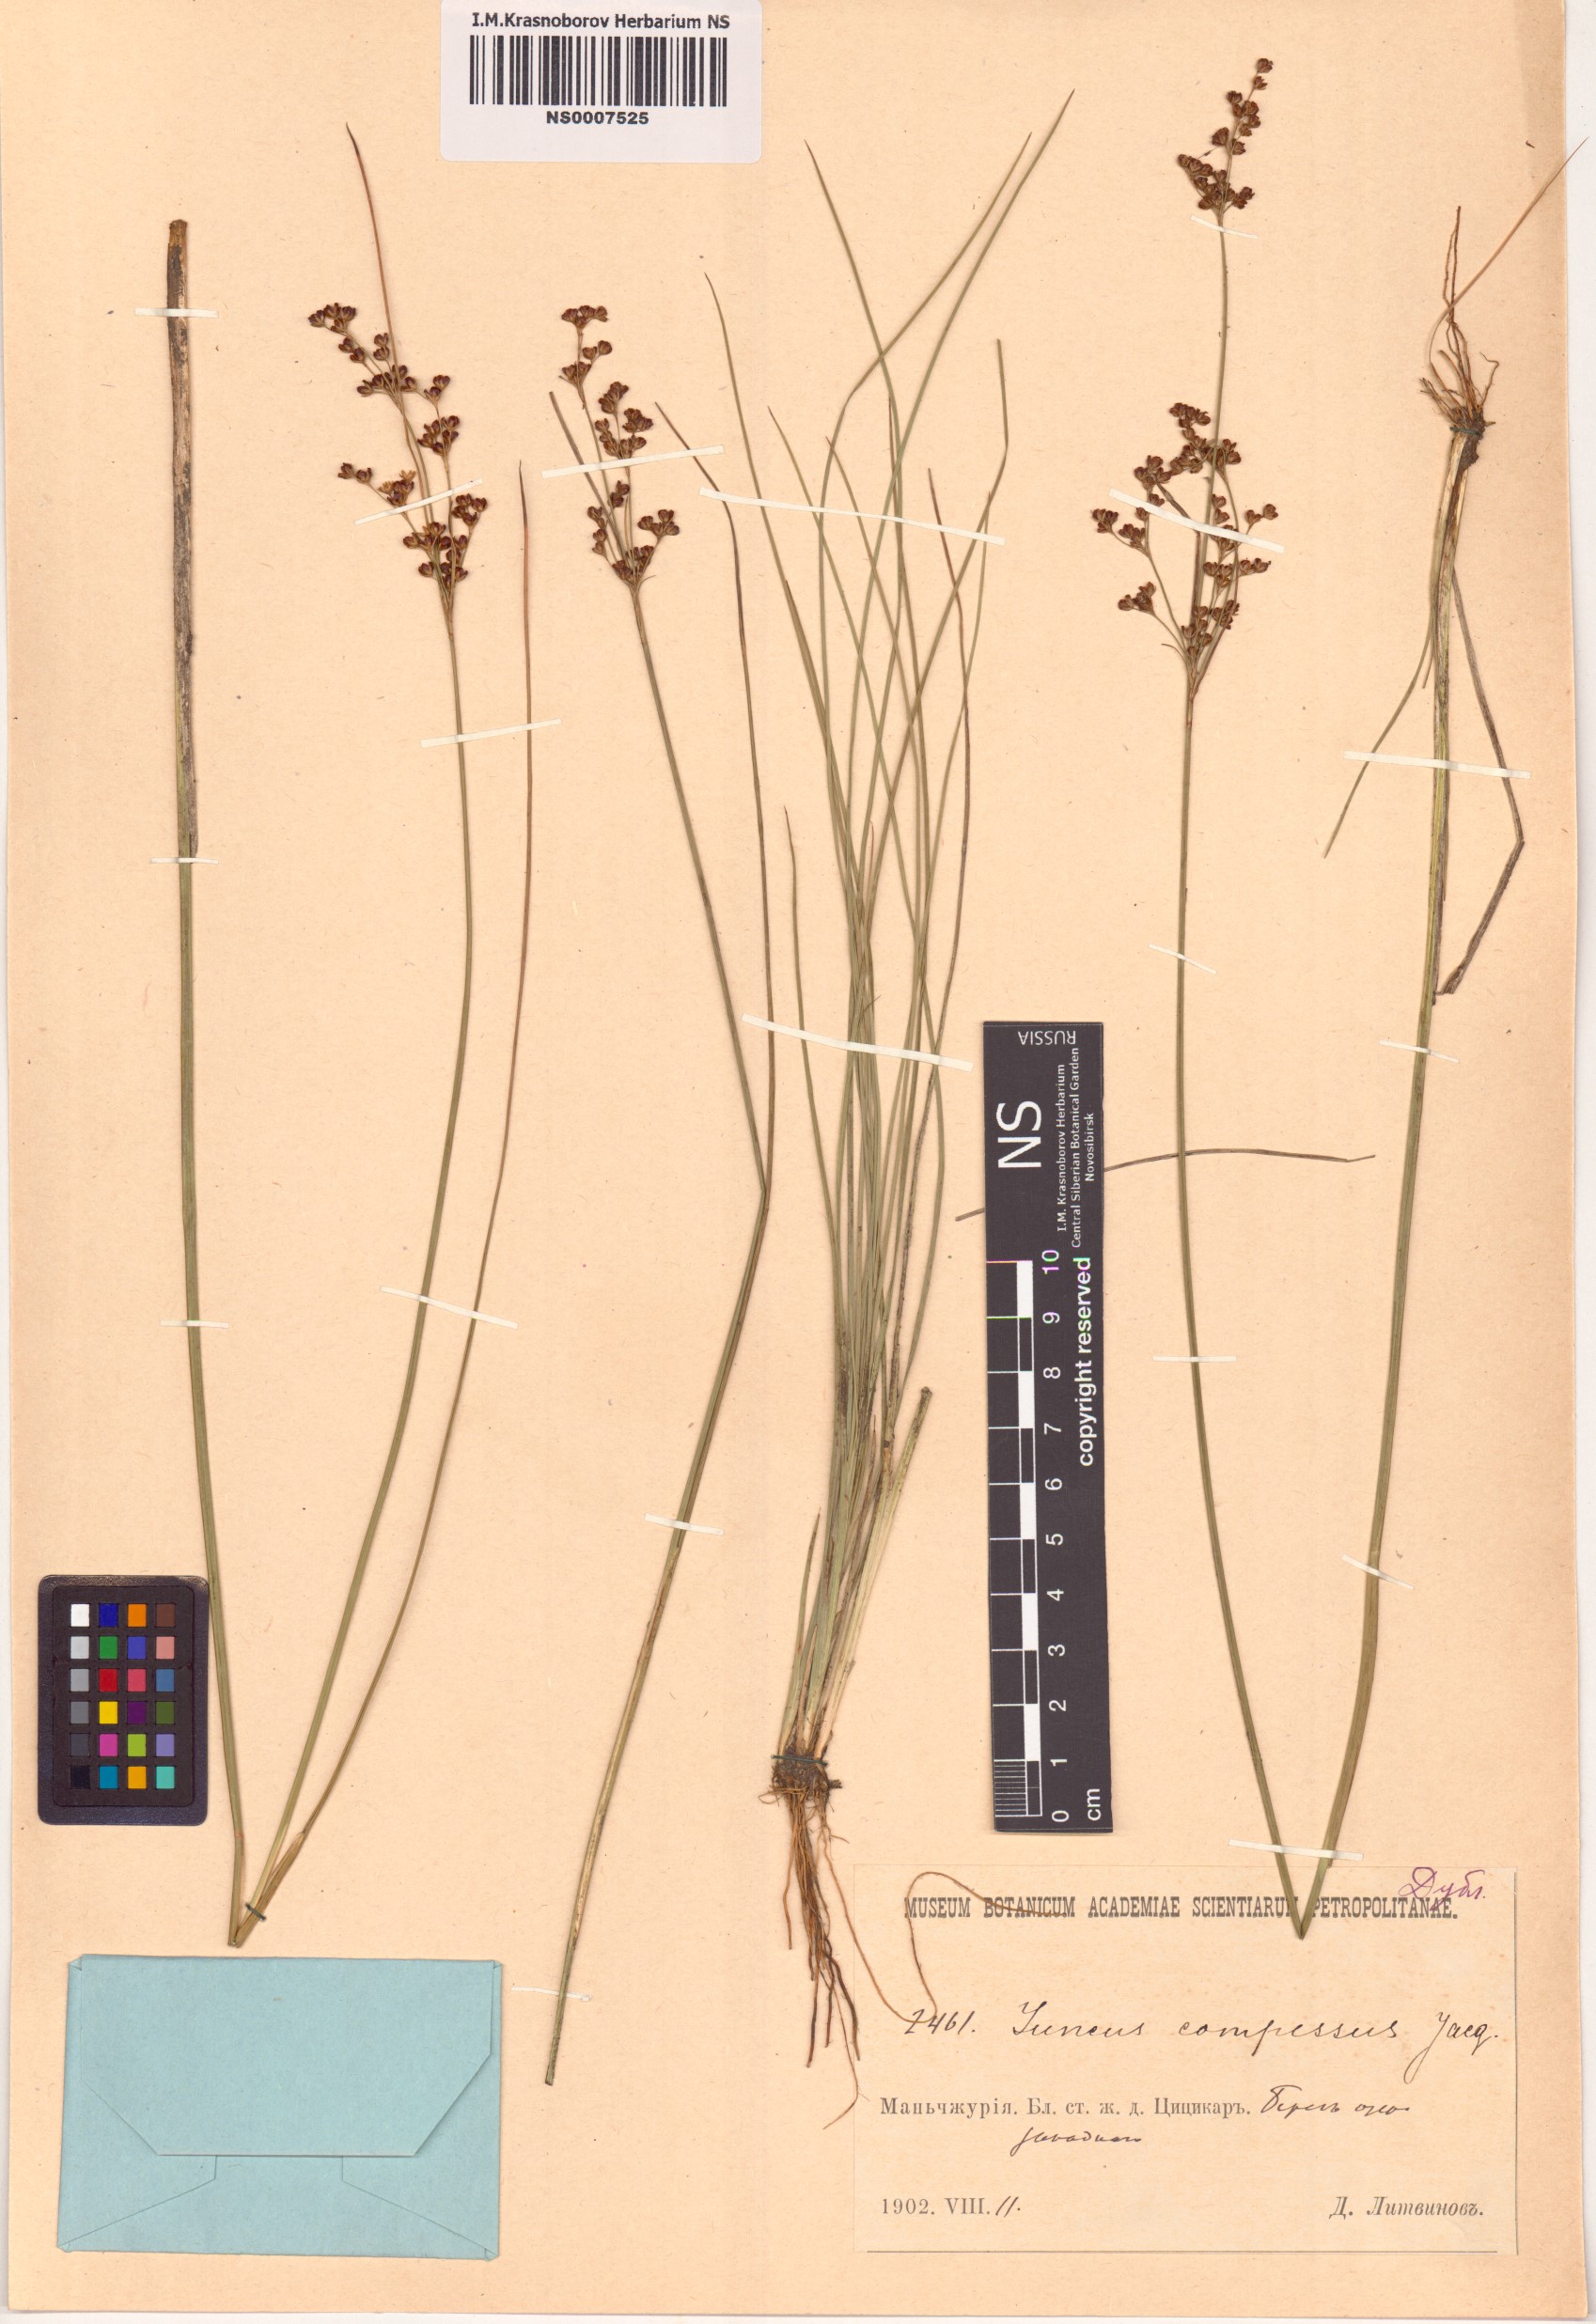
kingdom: Plantae
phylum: Tracheophyta
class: Liliopsida
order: Poales
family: Juncaceae
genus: Juncus
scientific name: Juncus compressus
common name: Round-fruited rush
